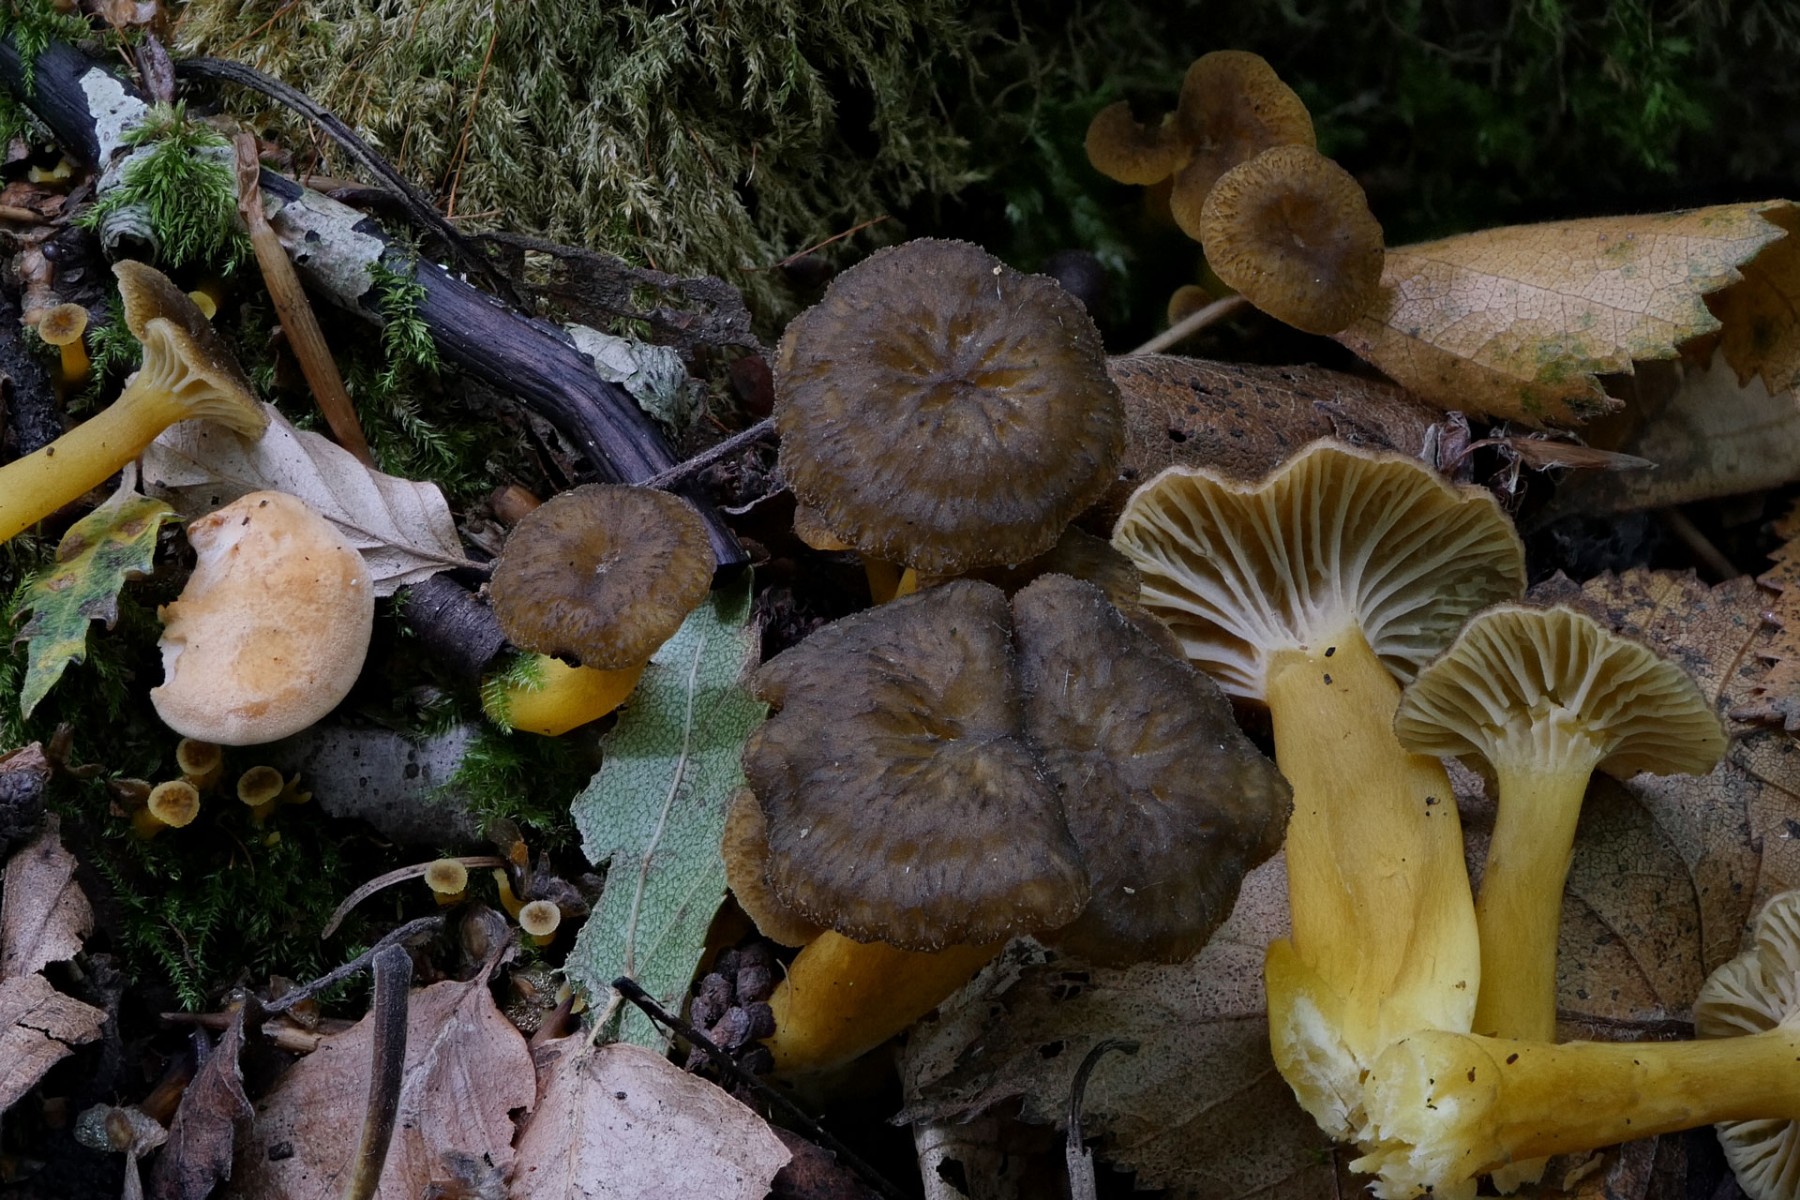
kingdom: Fungi
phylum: Basidiomycota
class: Agaricomycetes
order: Cantharellales
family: Hydnaceae
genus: Craterellus
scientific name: Craterellus tubaeformis
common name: tragt-kantarel
